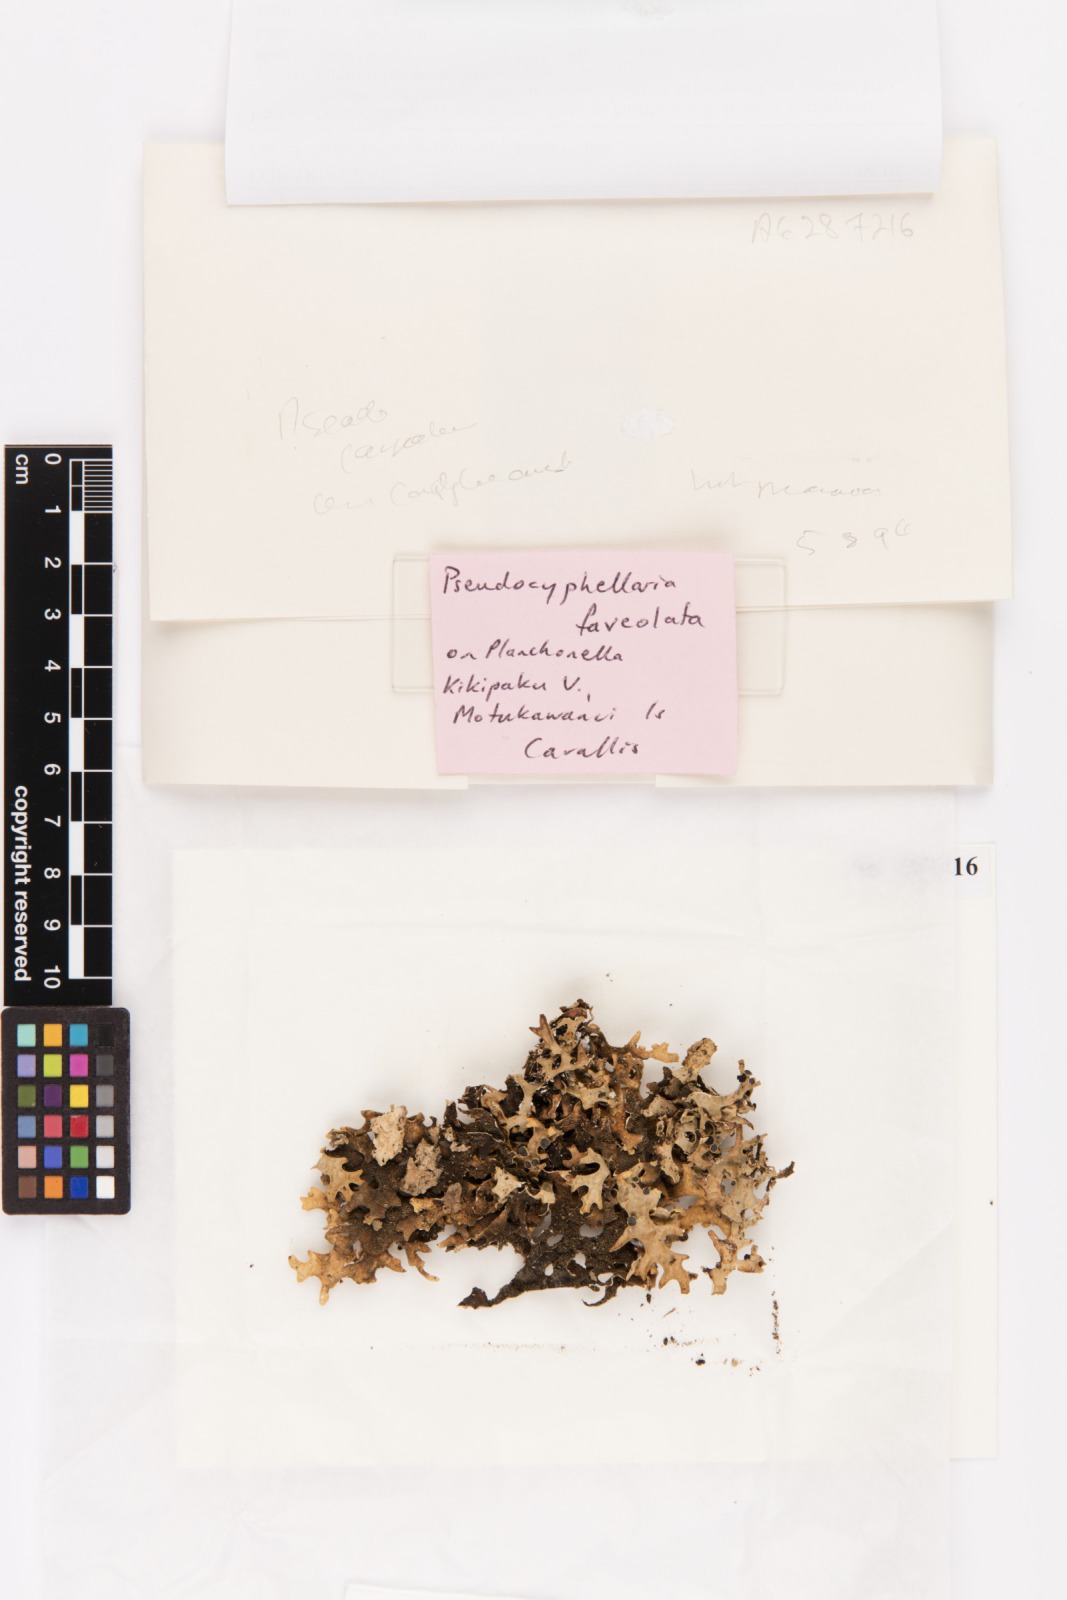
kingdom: Fungi
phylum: Ascomycota
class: Lecanoromycetes
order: Peltigerales
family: Lobariaceae
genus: Pseudocyphellaria
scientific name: Pseudocyphellaria carpoloma
